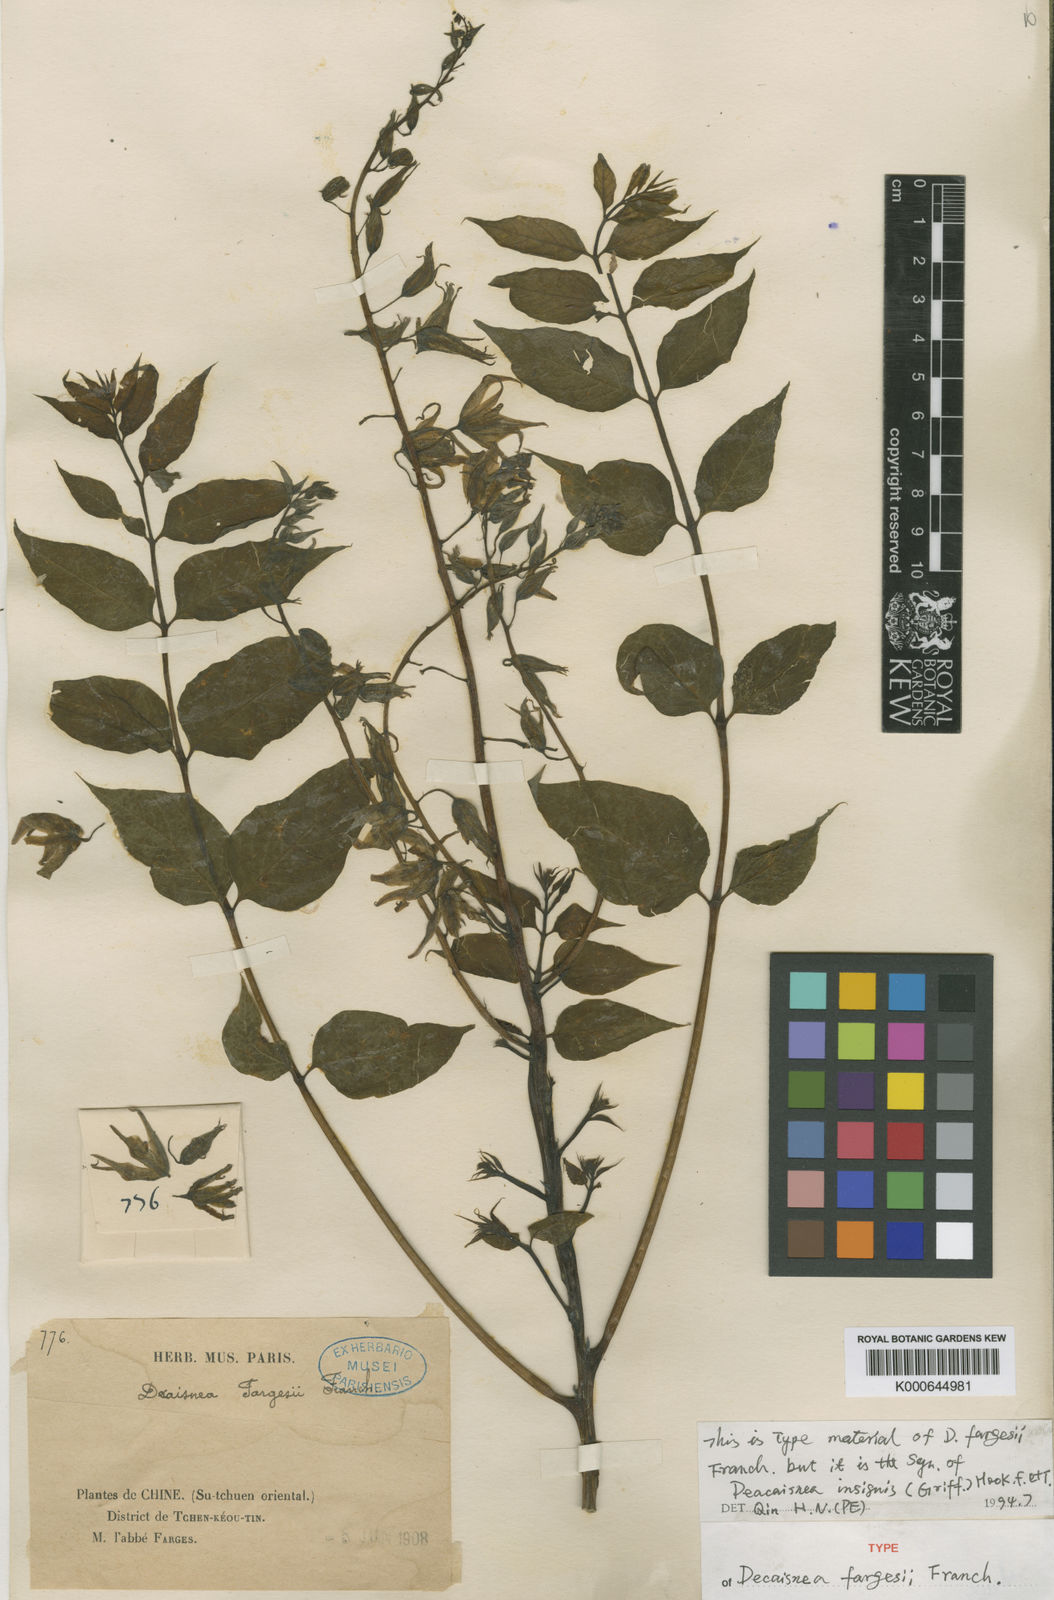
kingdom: Plantae
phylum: Tracheophyta
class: Magnoliopsida
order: Ranunculales
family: Lardizabalaceae
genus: Decaisnea
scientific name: Decaisnea insignis
